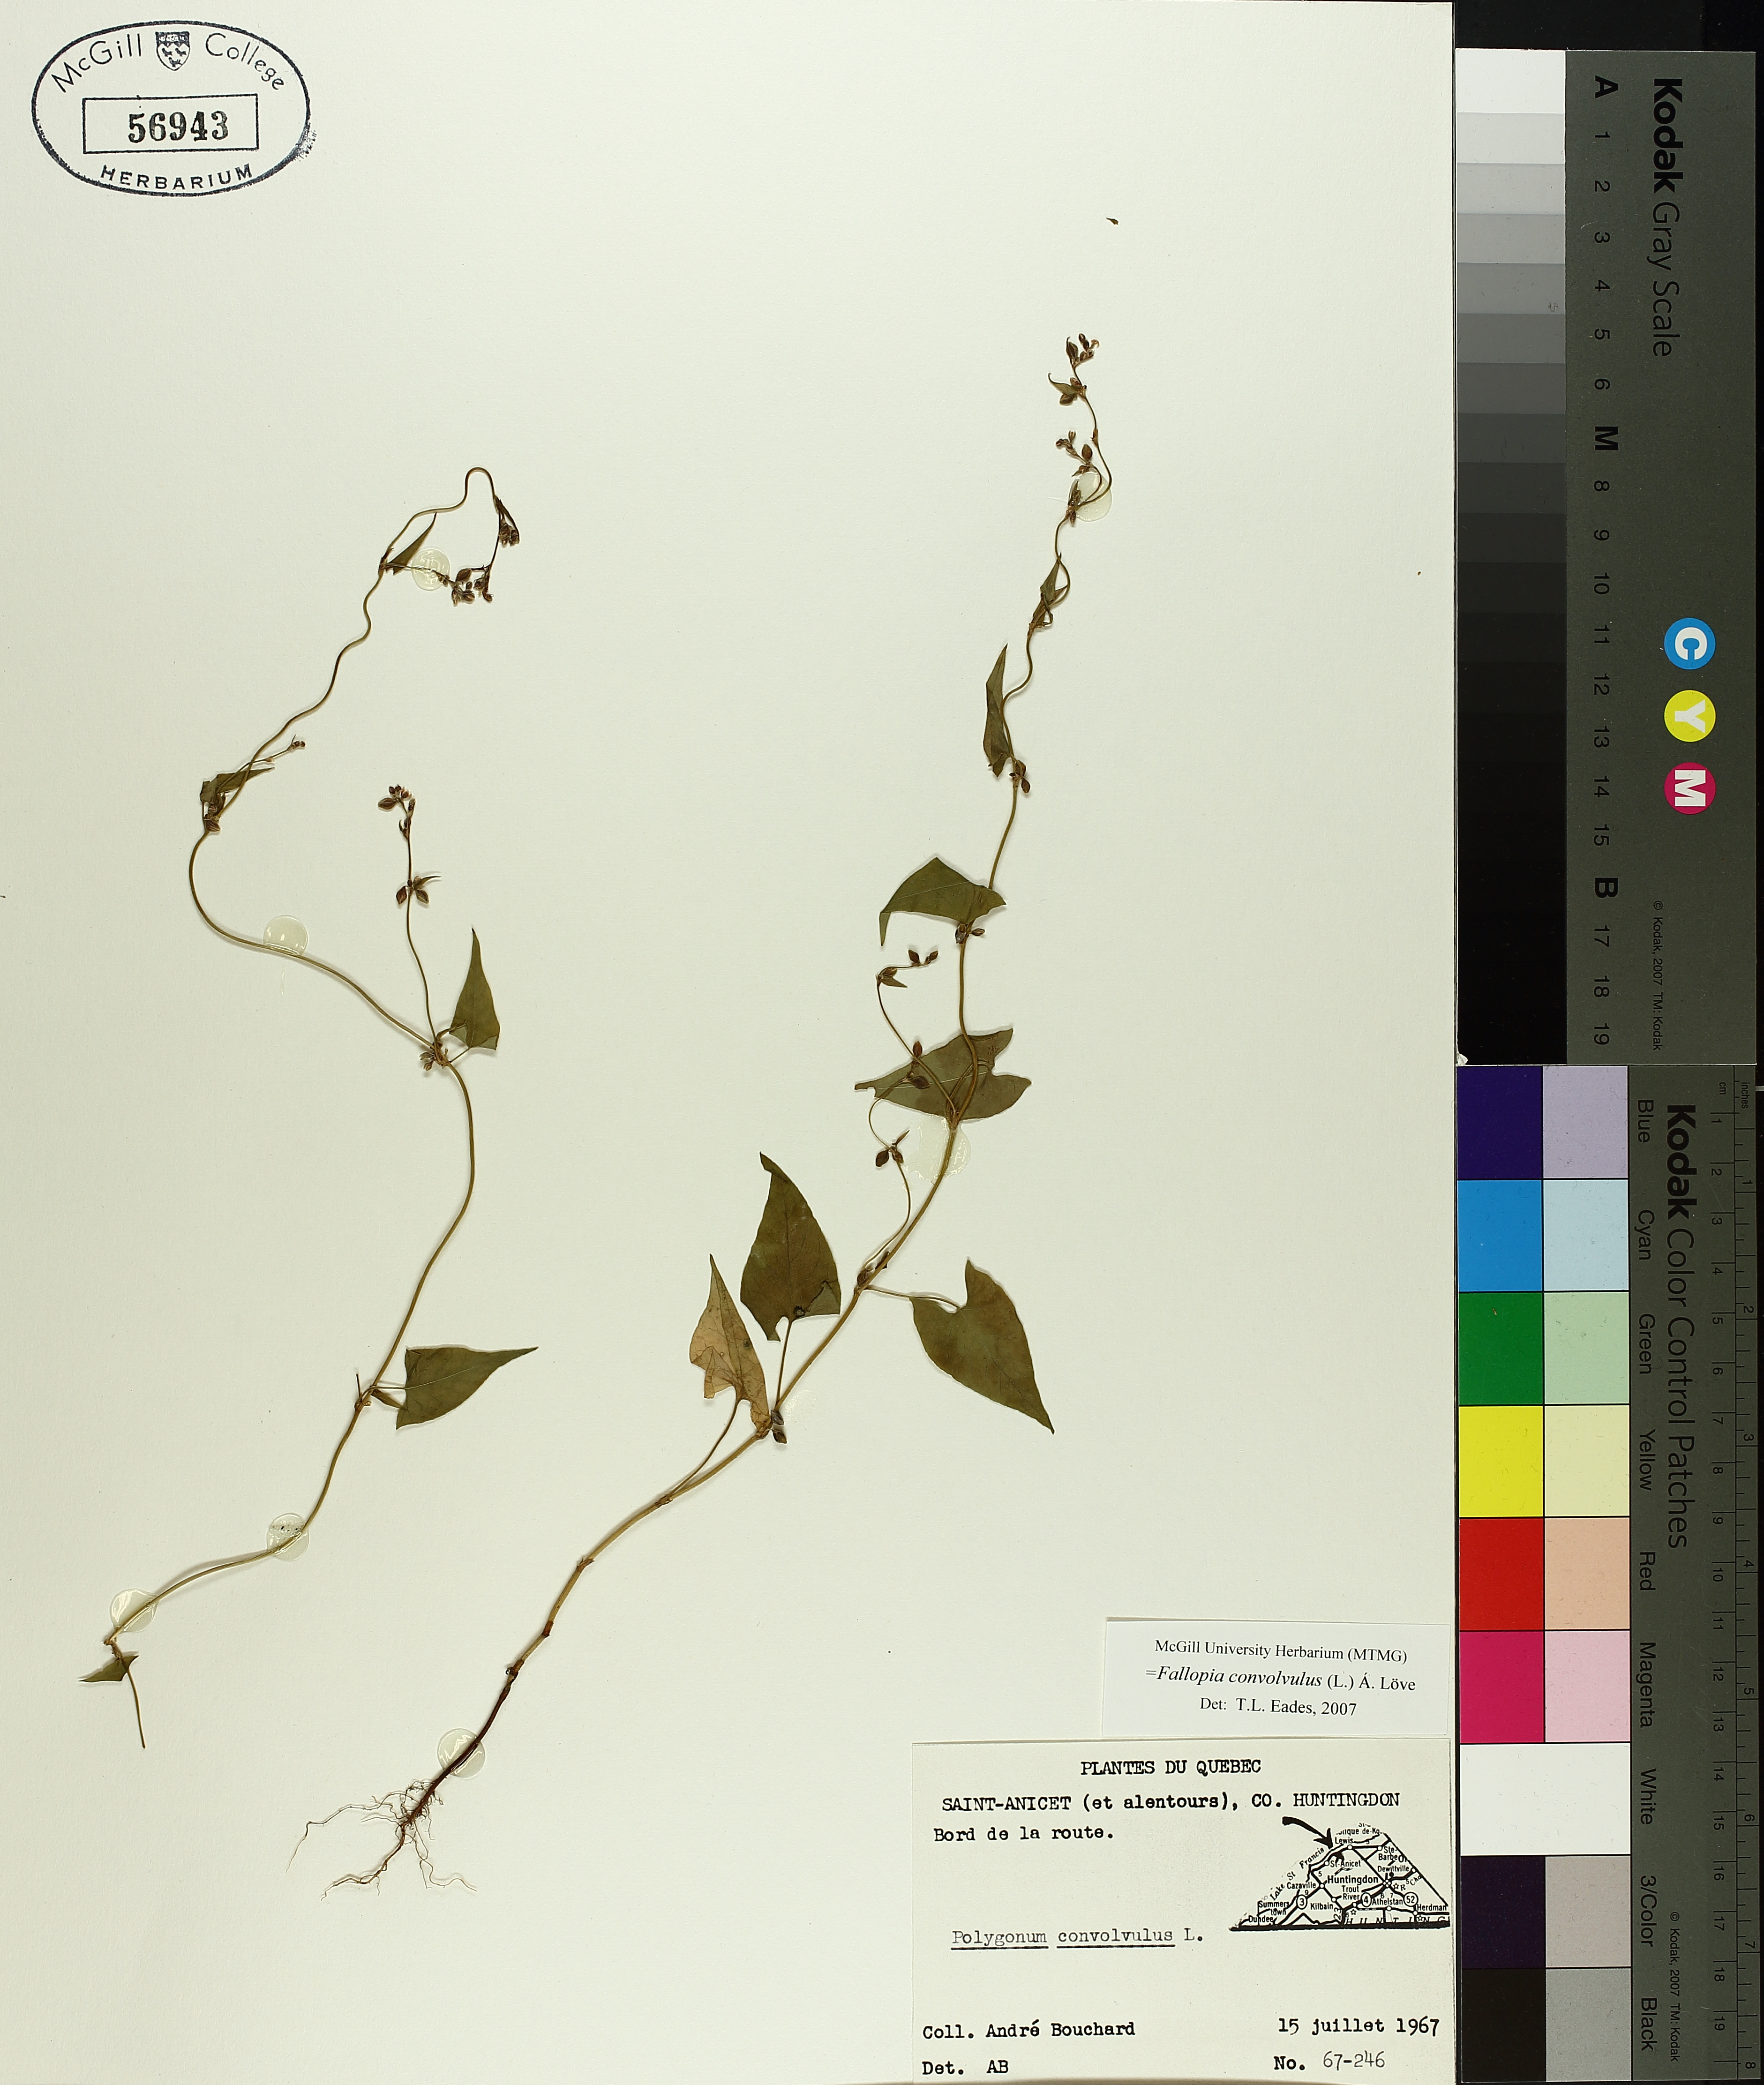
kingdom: Plantae
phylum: Tracheophyta
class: Magnoliopsida
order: Caryophyllales
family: Polygonaceae
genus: Fallopia
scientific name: Fallopia convolvulus
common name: Black bindweed
